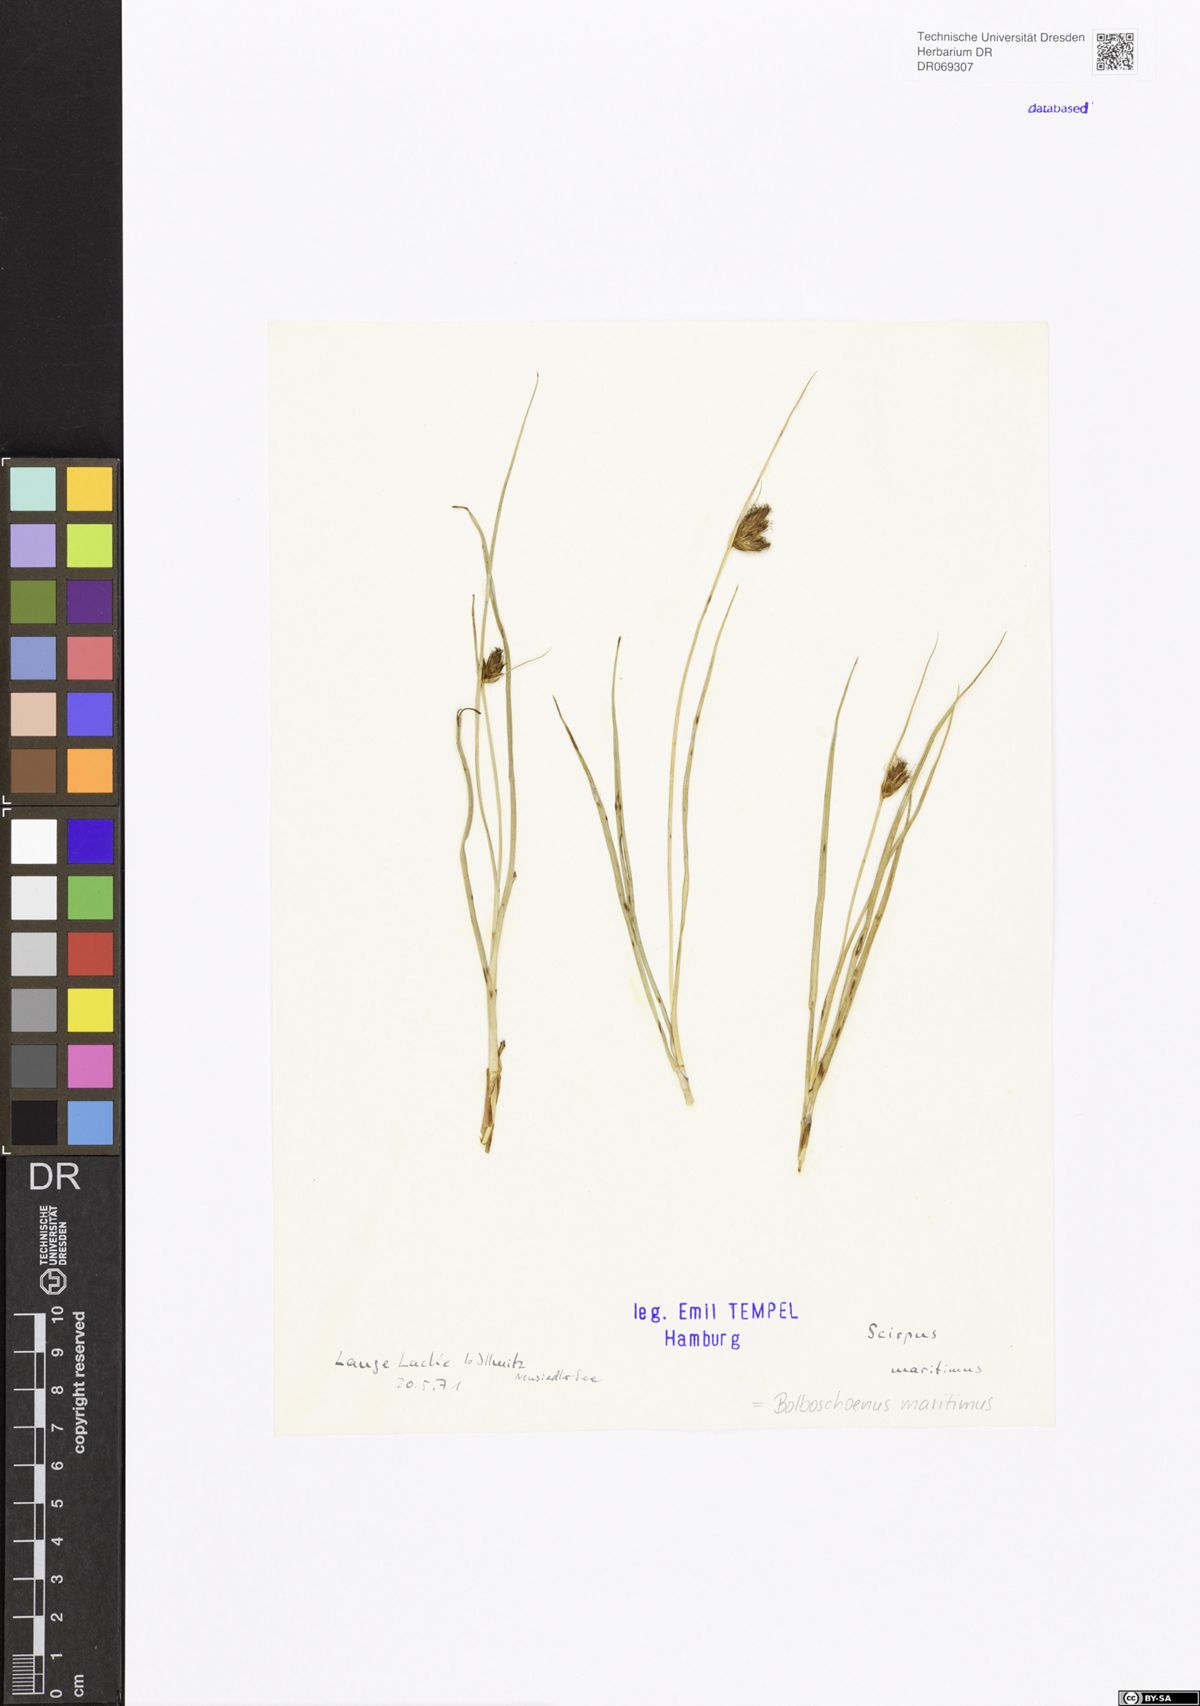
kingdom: Plantae
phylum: Tracheophyta
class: Liliopsida
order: Poales
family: Cyperaceae
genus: Bolboschoenus
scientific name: Bolboschoenus maritimus
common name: Sea club-rush
